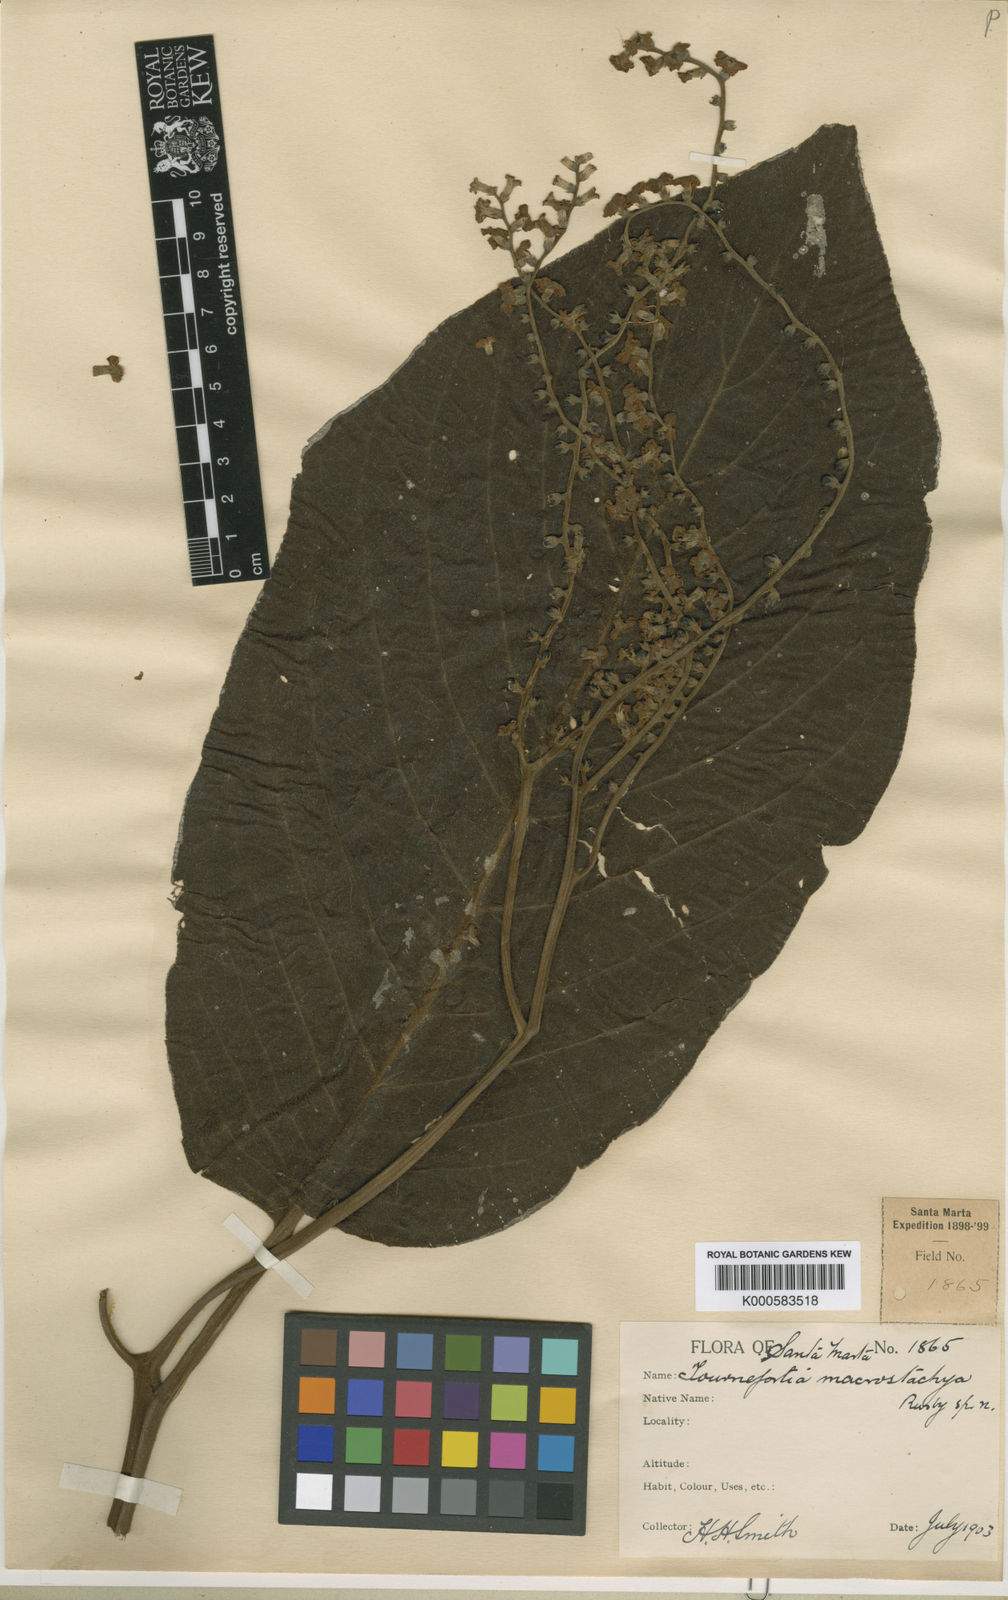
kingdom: Plantae
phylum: Tracheophyta
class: Magnoliopsida
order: Boraginales
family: Heliotropiaceae
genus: Tournefortia
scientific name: Tournefortia macrostachya
